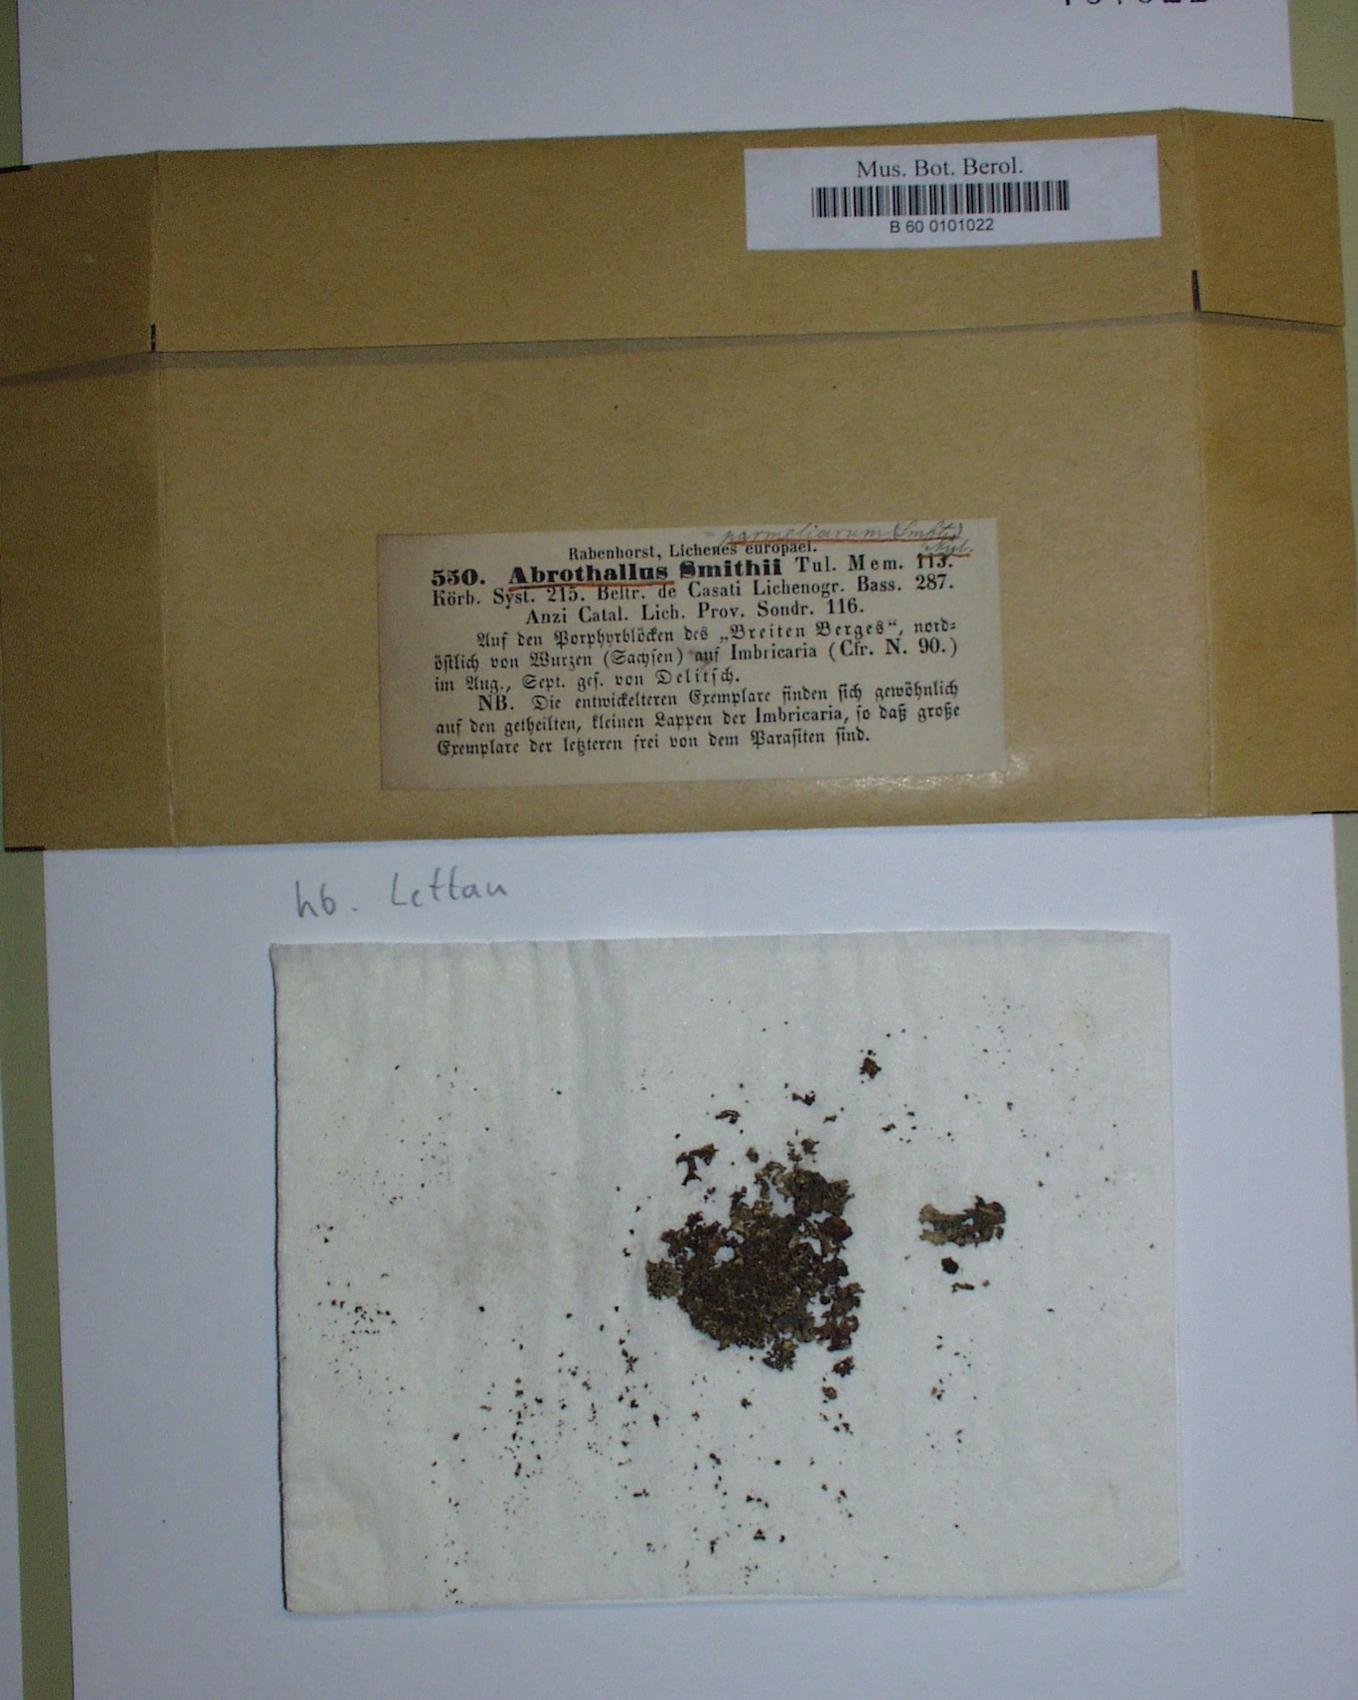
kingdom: Fungi
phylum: Ascomycota
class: Dothideomycetes
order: Abrothallales
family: Abrothallaceae
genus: Abrothallus
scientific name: Abrothallus parmeliarum
